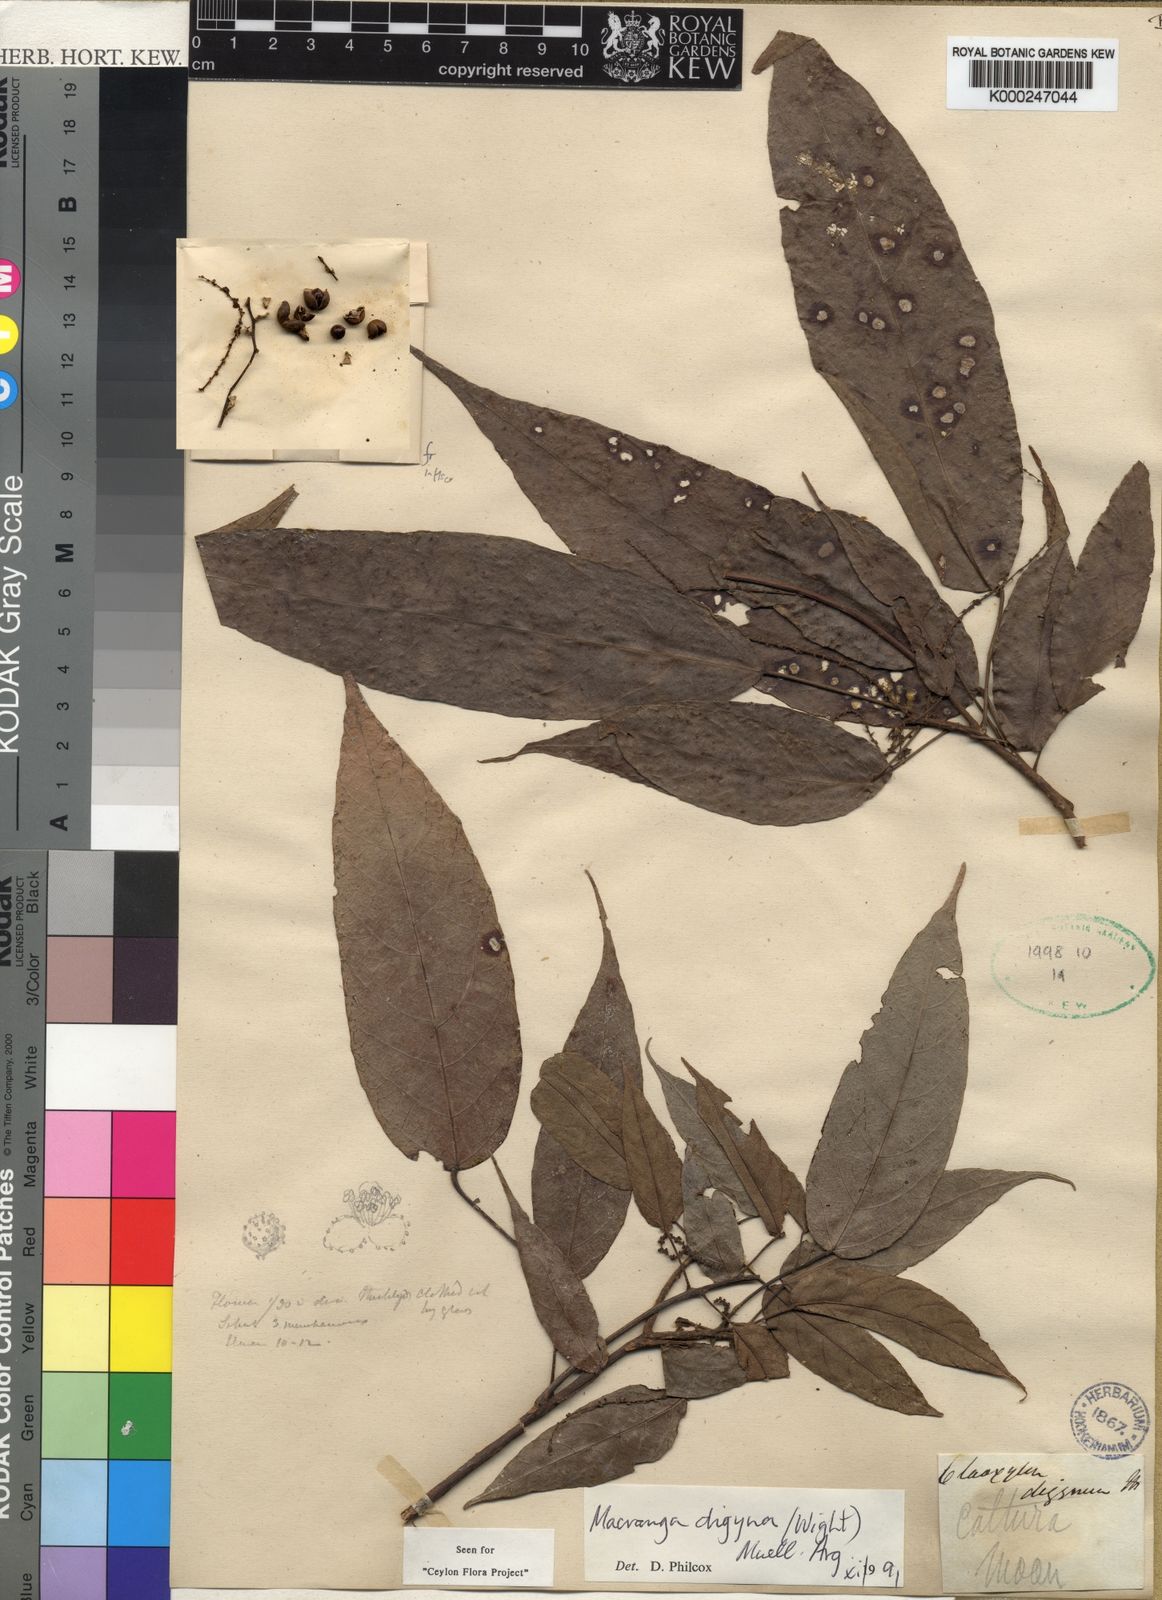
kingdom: Plantae
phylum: Tracheophyta
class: Magnoliopsida
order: Malpighiales
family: Euphorbiaceae
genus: Macaranga
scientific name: Macaranga
